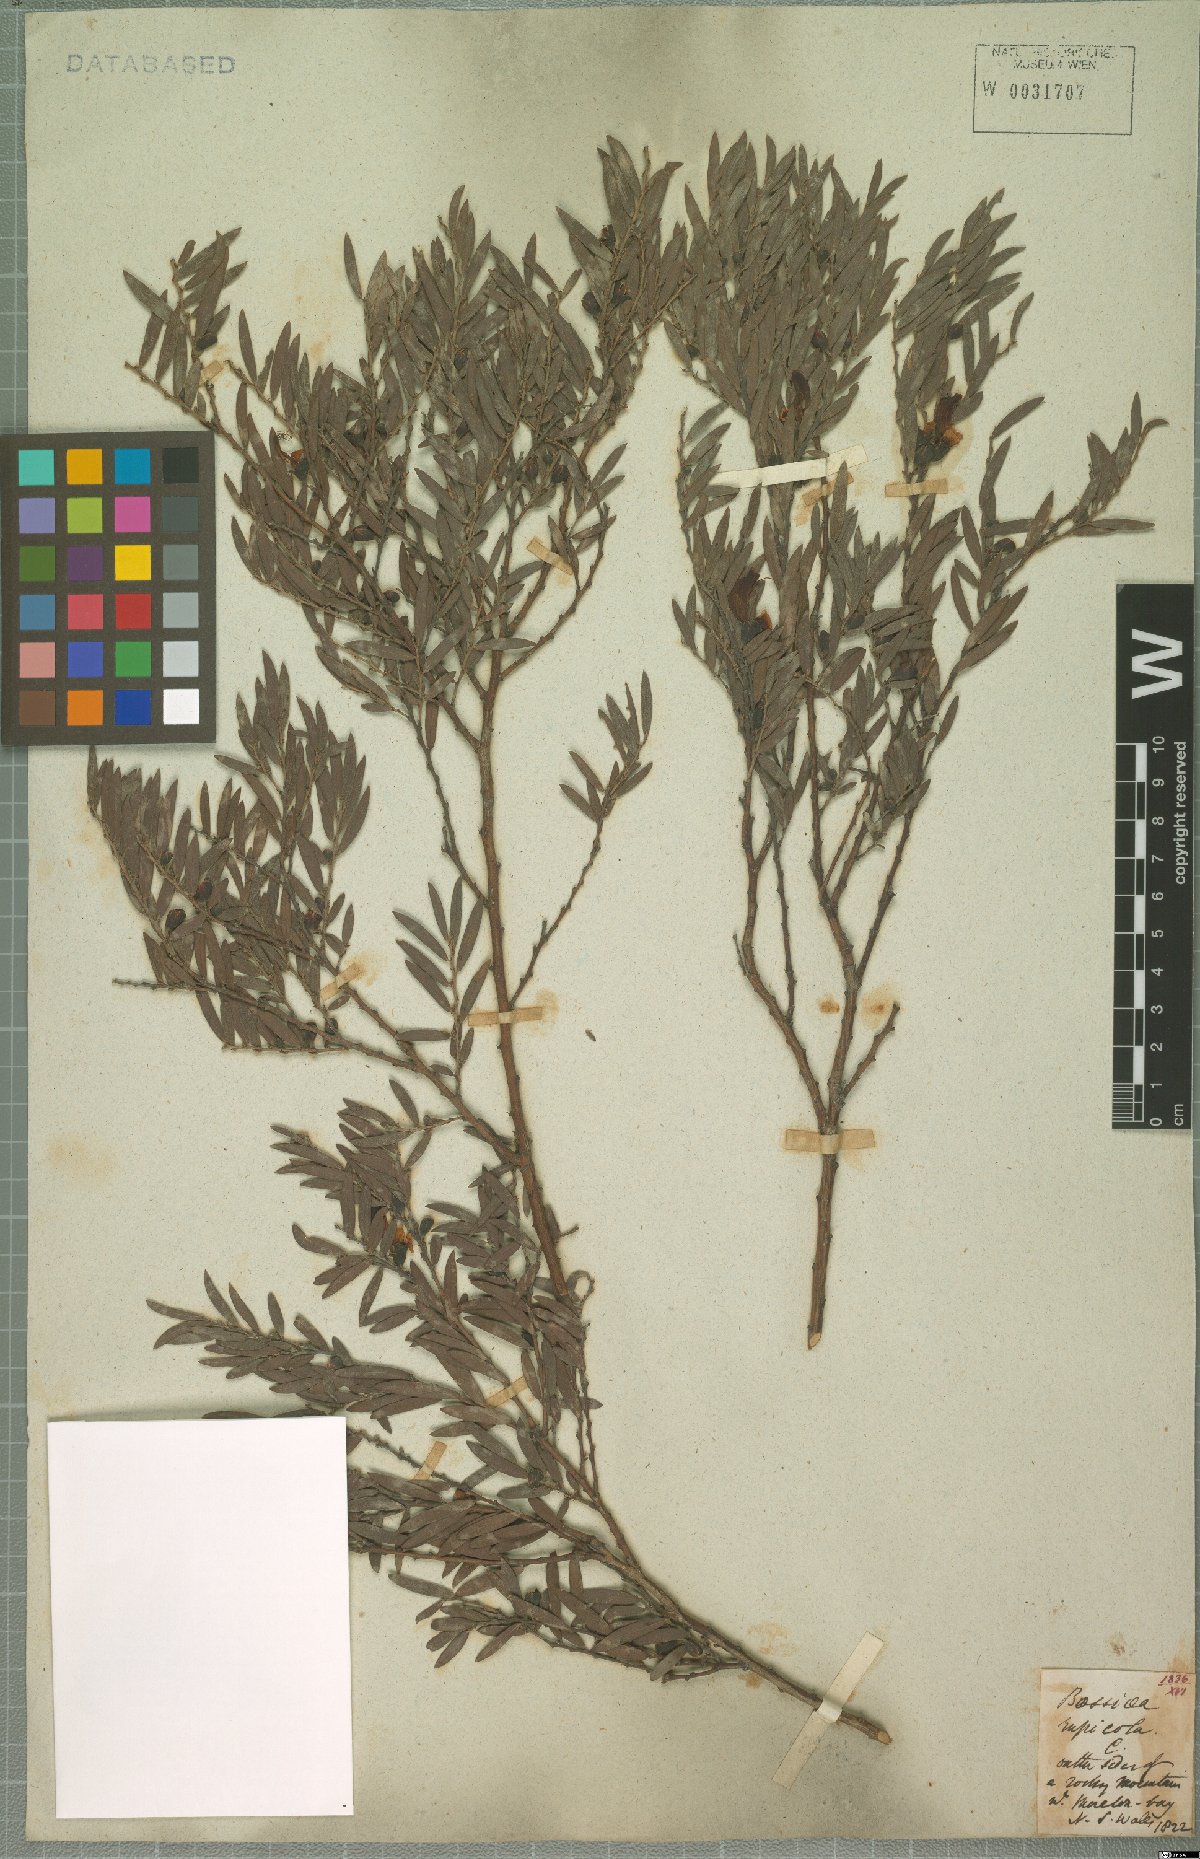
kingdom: Plantae
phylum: Tracheophyta
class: Magnoliopsida
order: Fabales
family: Fabaceae
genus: Bossiaea
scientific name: Bossiaea rupicola
